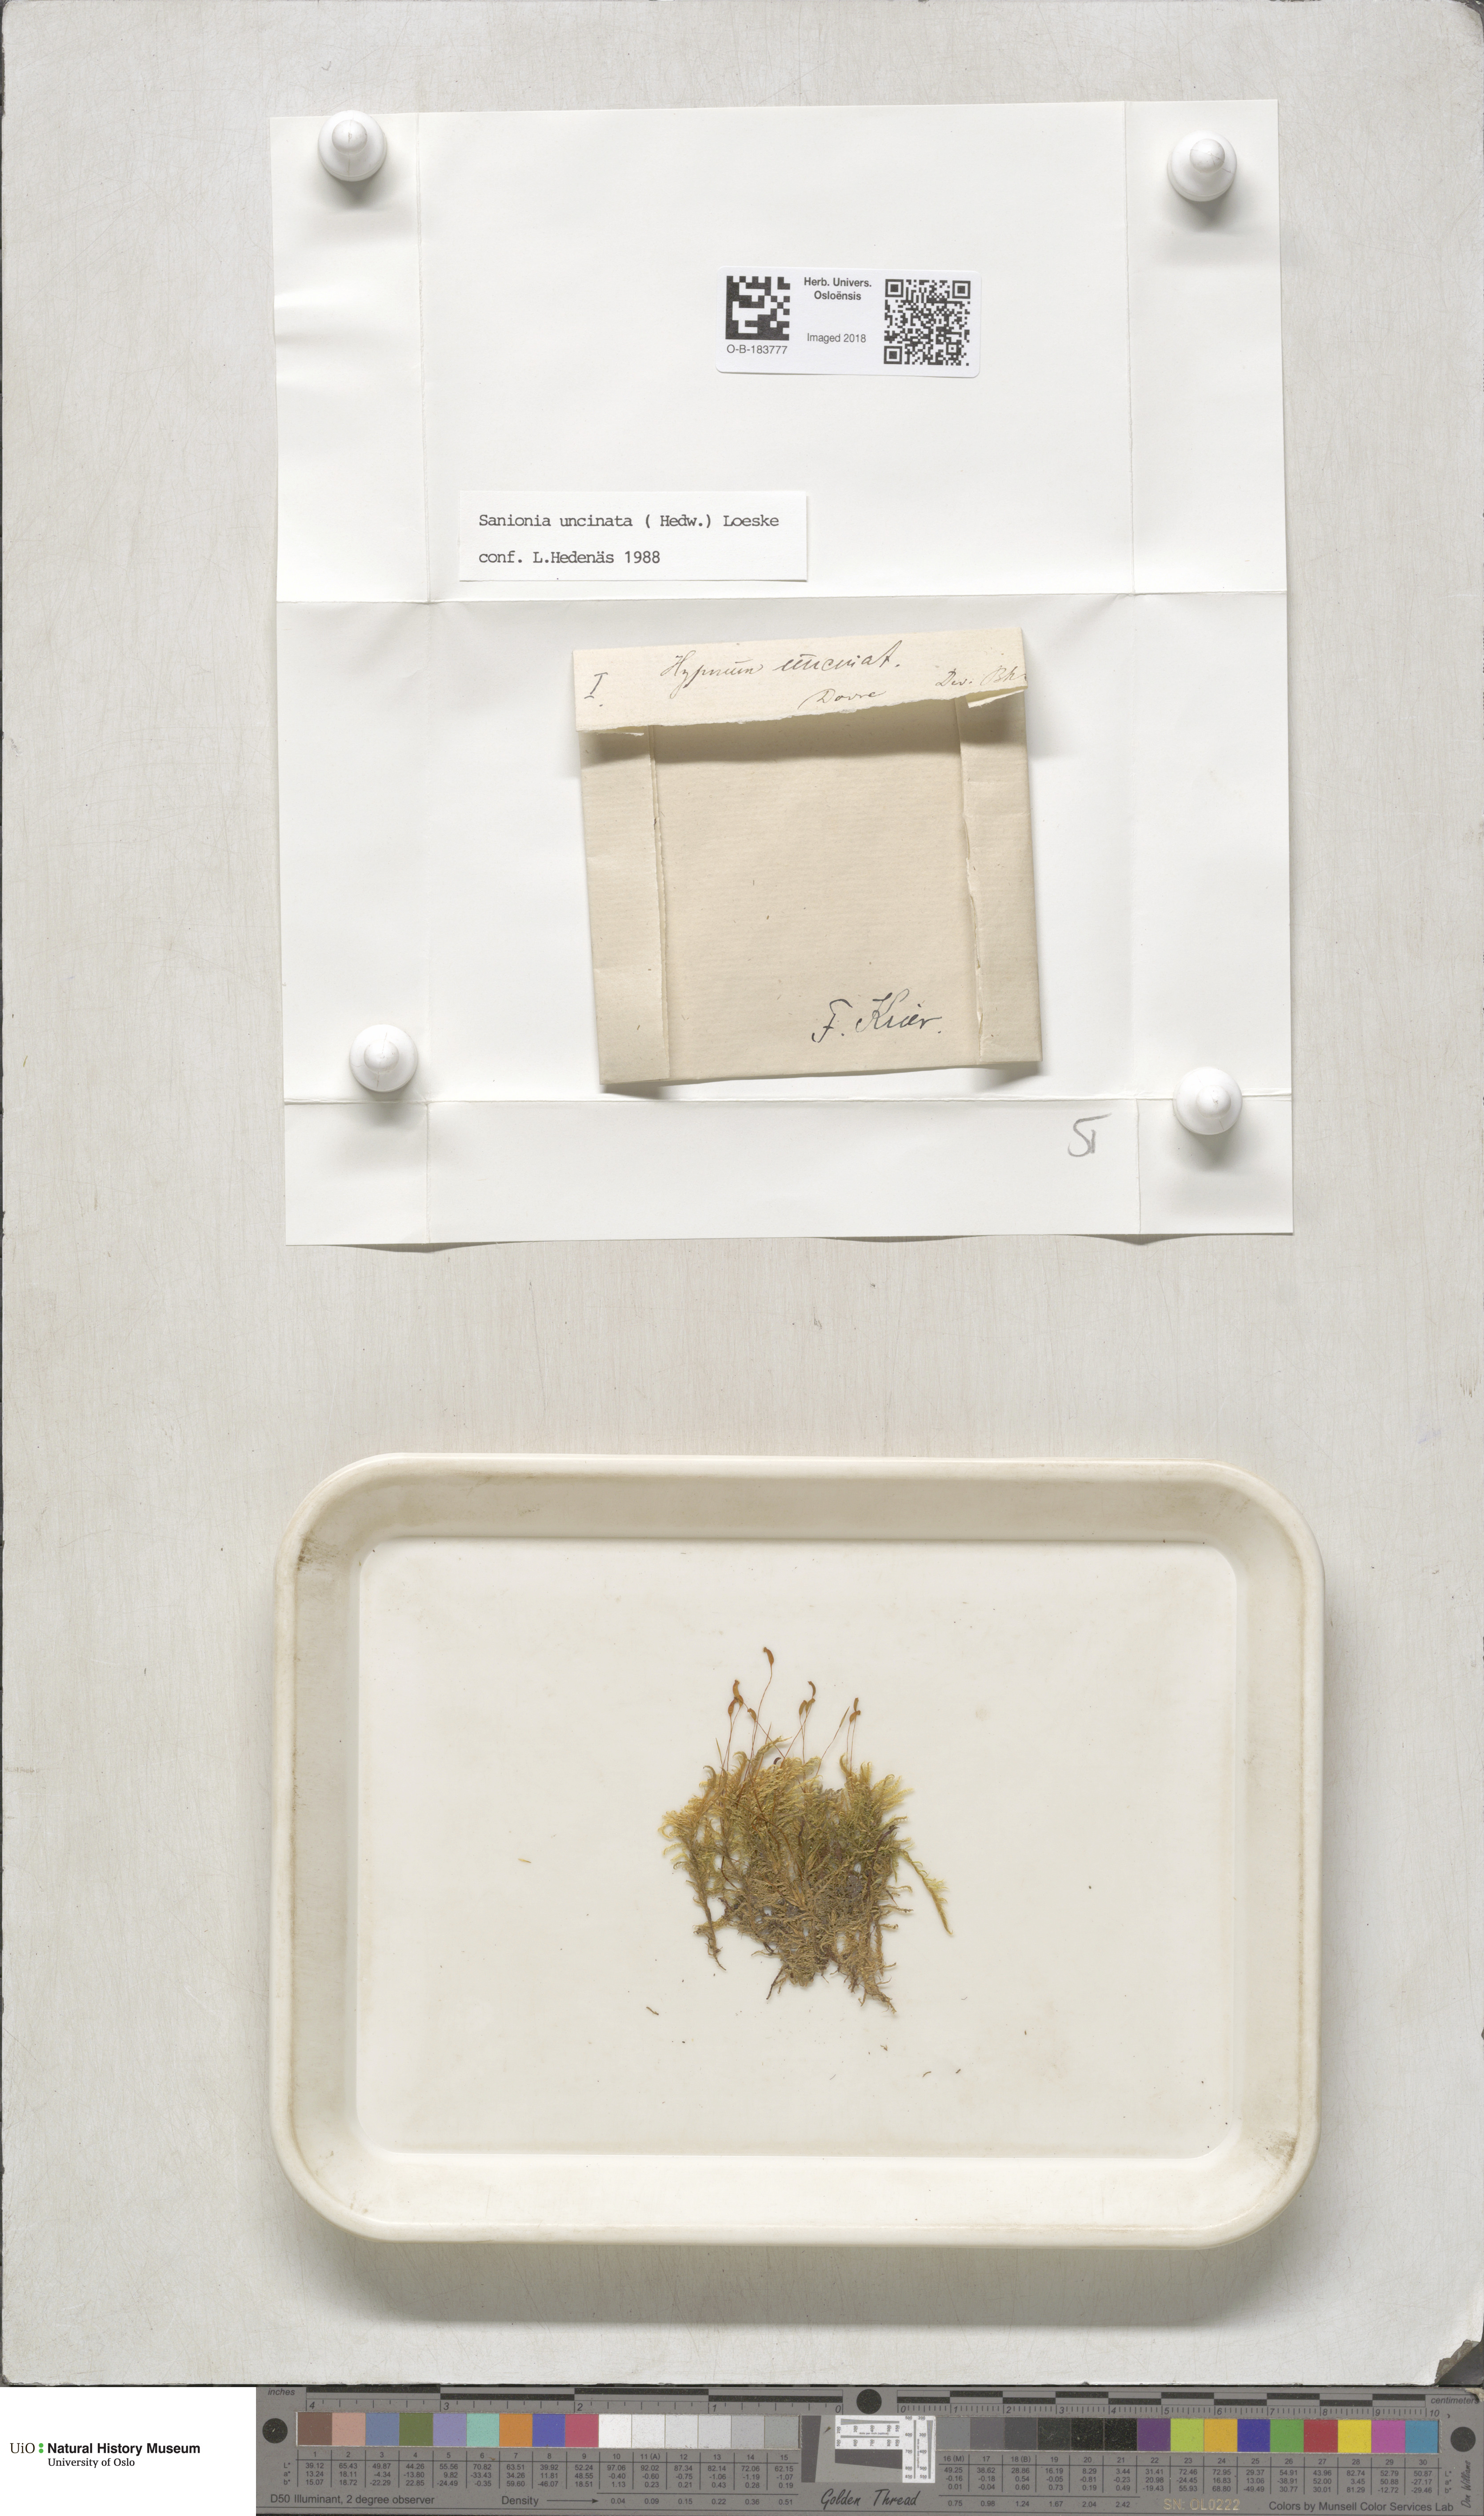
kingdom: Plantae
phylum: Bryophyta
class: Bryopsida
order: Hypnales
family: Scorpidiaceae
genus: Sanionia
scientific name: Sanionia uncinata
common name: Sickle moss
